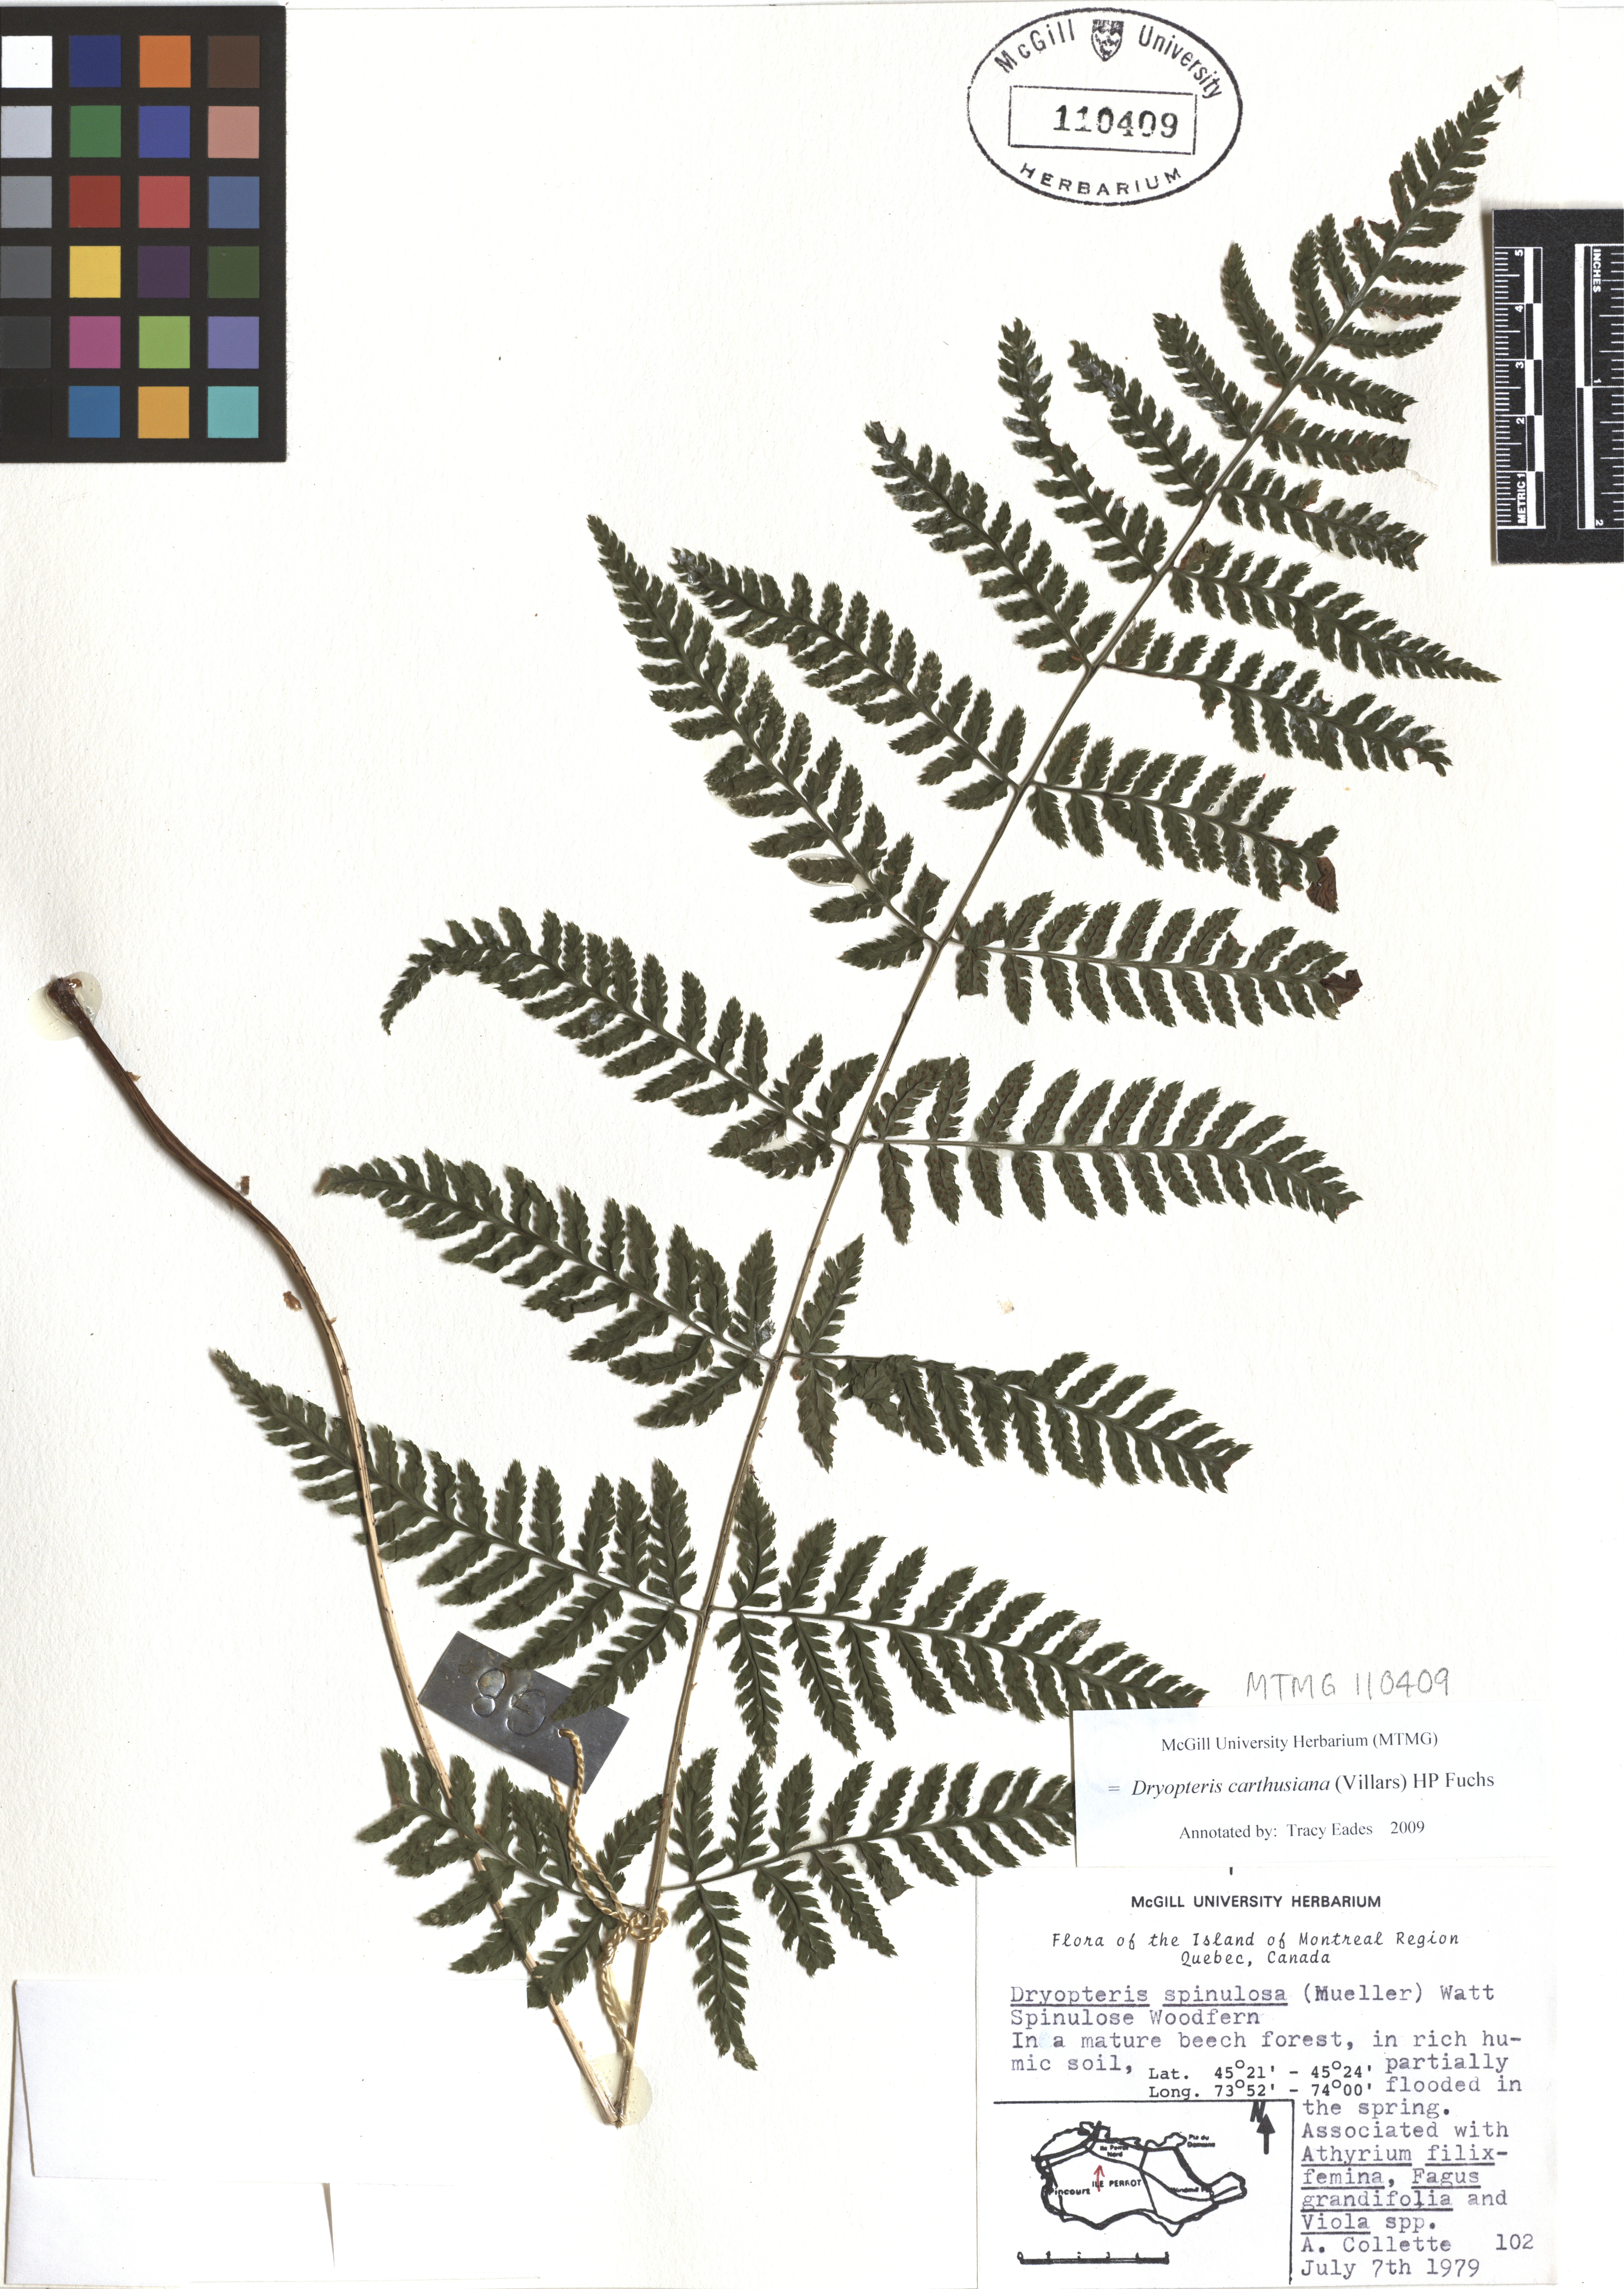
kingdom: Plantae
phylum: Tracheophyta
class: Polypodiopsida
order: Polypodiales
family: Dryopteridaceae
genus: Dryopteris
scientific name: Dryopteris carthusiana
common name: Narrow buckler-fern
